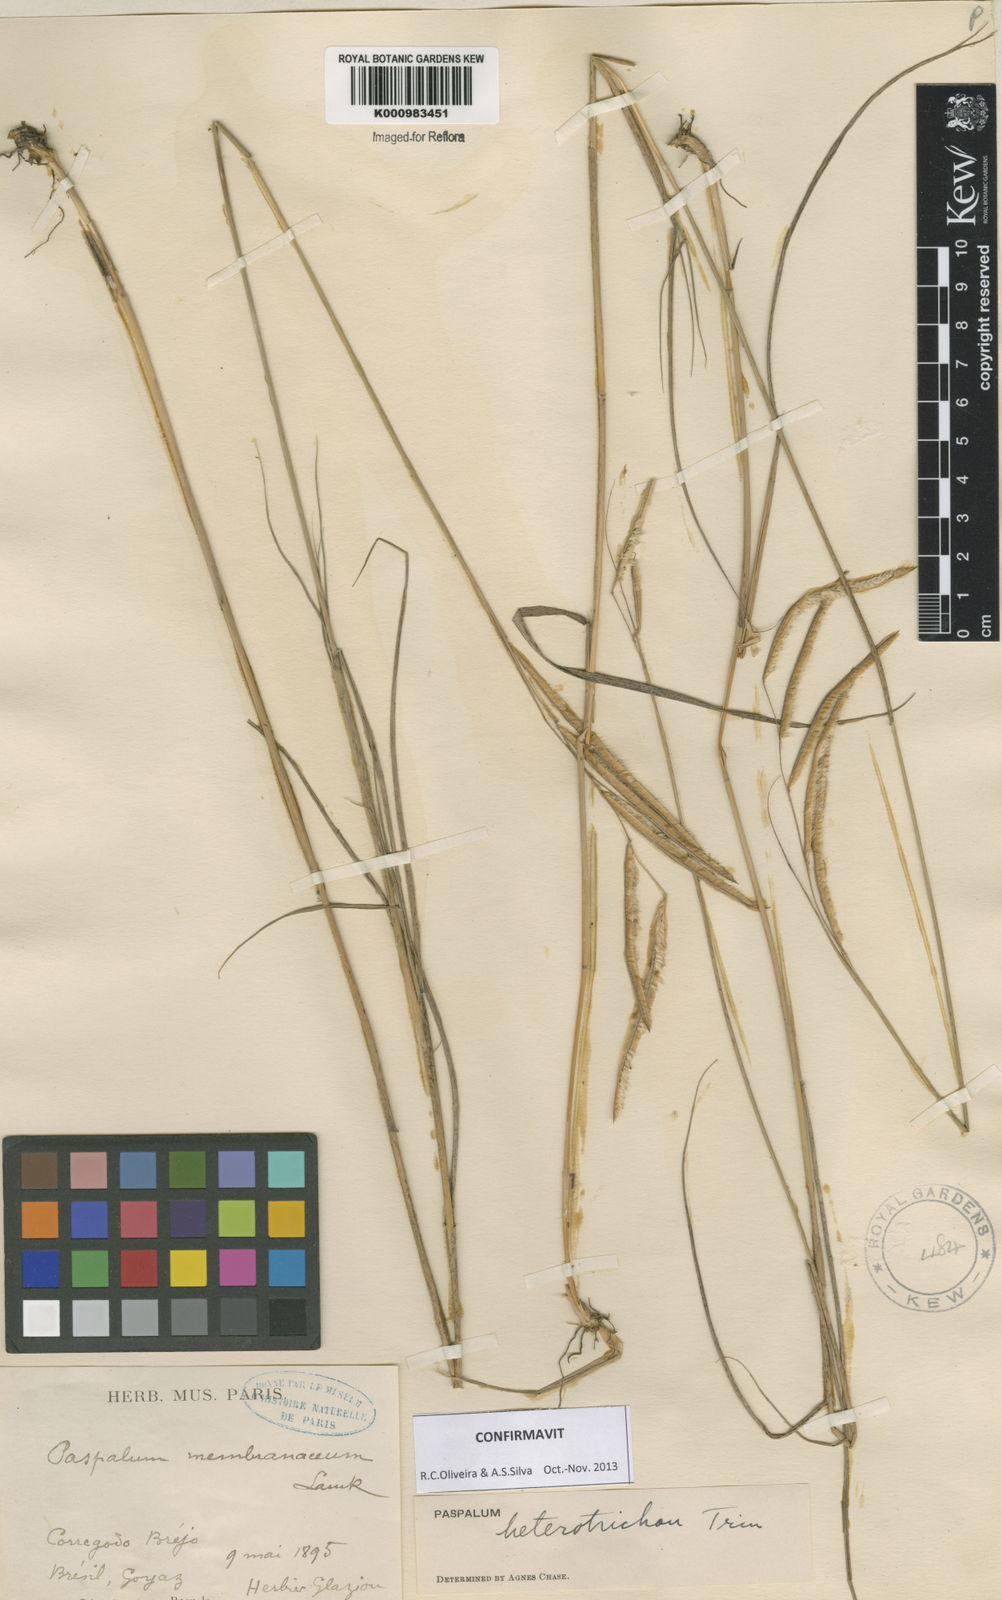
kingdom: Plantae
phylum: Tracheophyta
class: Liliopsida
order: Poales
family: Poaceae
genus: Paspalum
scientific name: Paspalum heterotrichon
